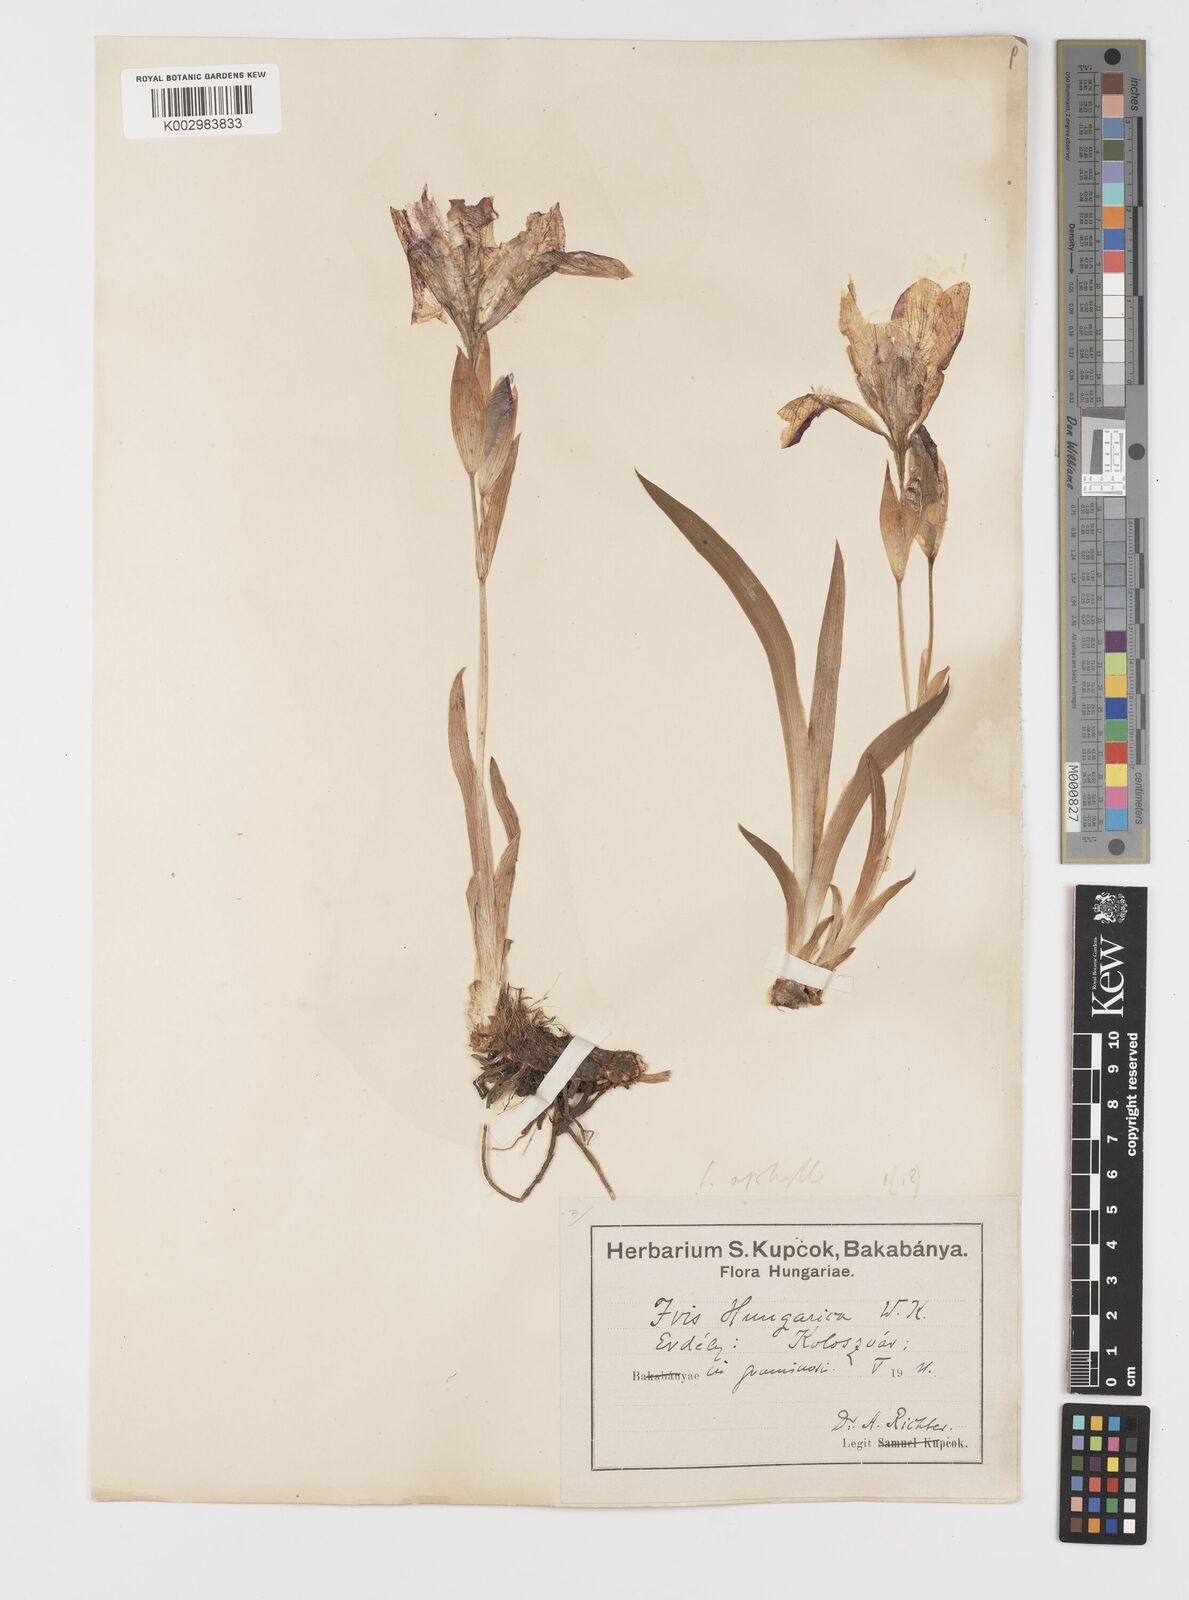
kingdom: Plantae
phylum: Tracheophyta
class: Liliopsida
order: Asparagales
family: Iridaceae
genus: Iris
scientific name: Iris aphylla
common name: Stool iris
